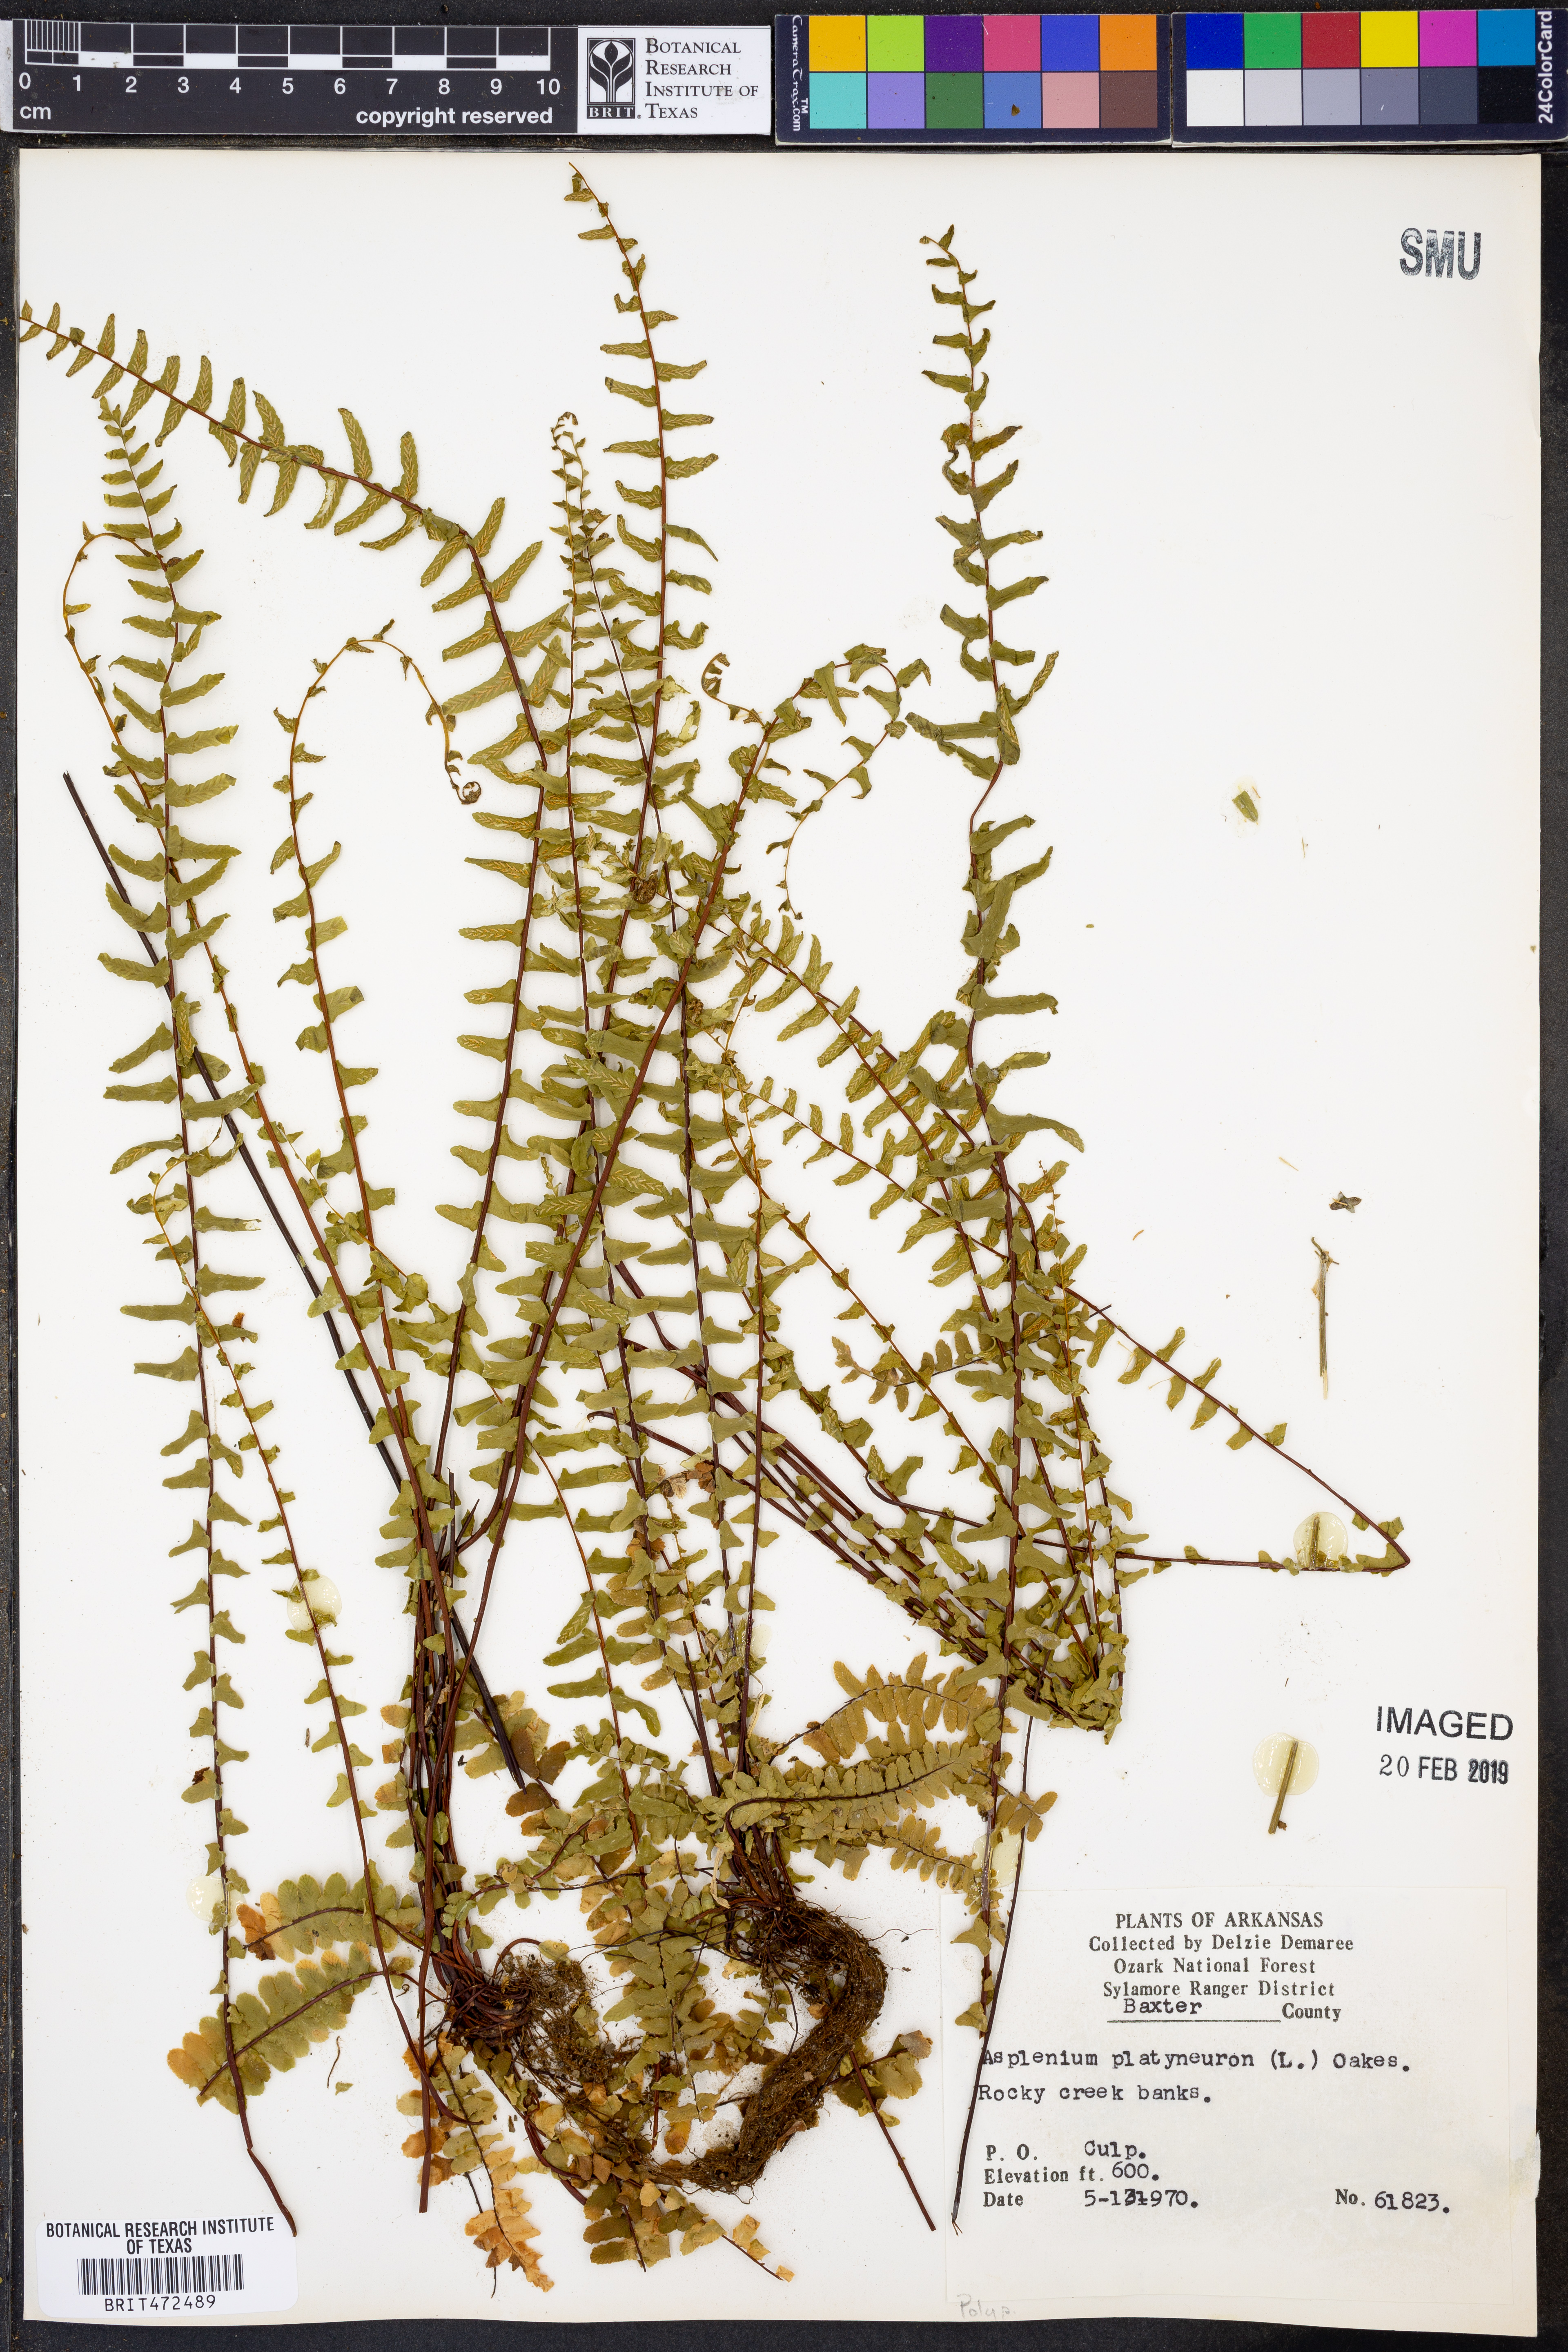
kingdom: Plantae
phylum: Tracheophyta
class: Polypodiopsida
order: Polypodiales
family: Aspleniaceae
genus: Asplenium
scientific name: Asplenium platyneuron
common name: Ebony spleenwort
